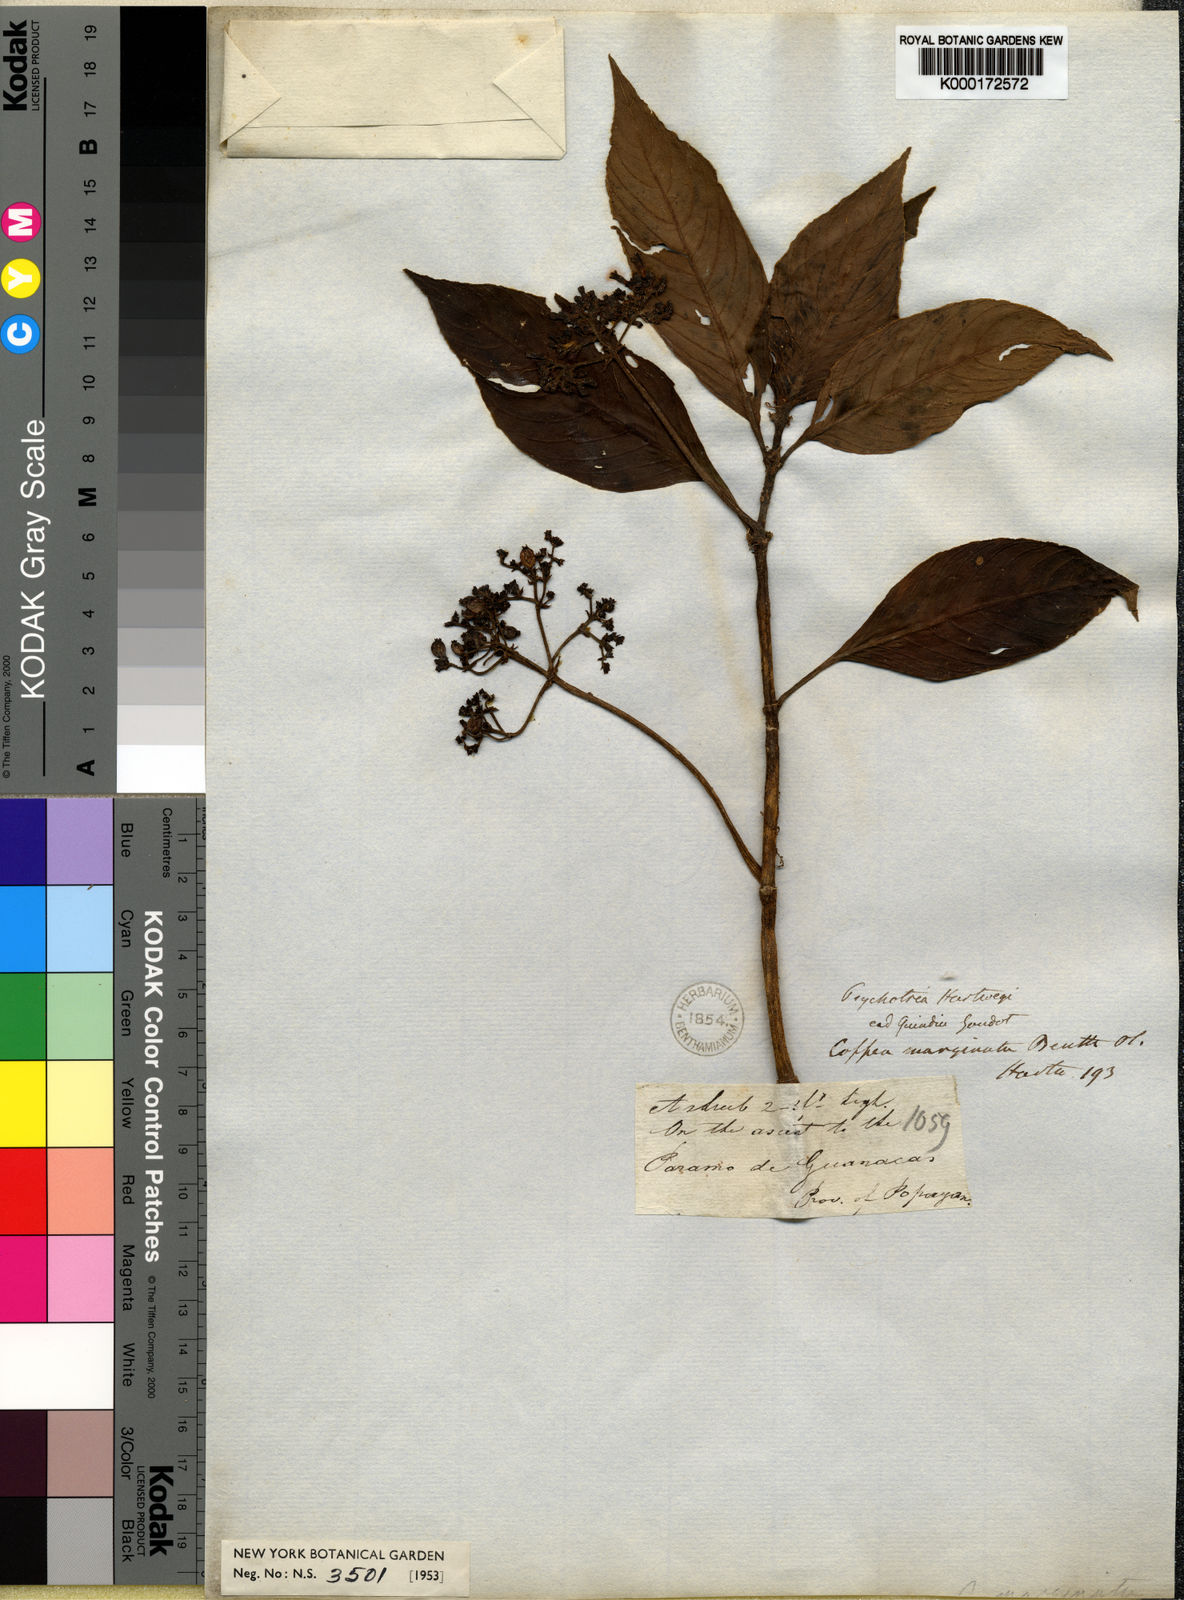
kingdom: Plantae
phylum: Tracheophyta
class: Magnoliopsida
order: Gentianales
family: Rubiaceae
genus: Notopleura
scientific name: Notopleura marginata
